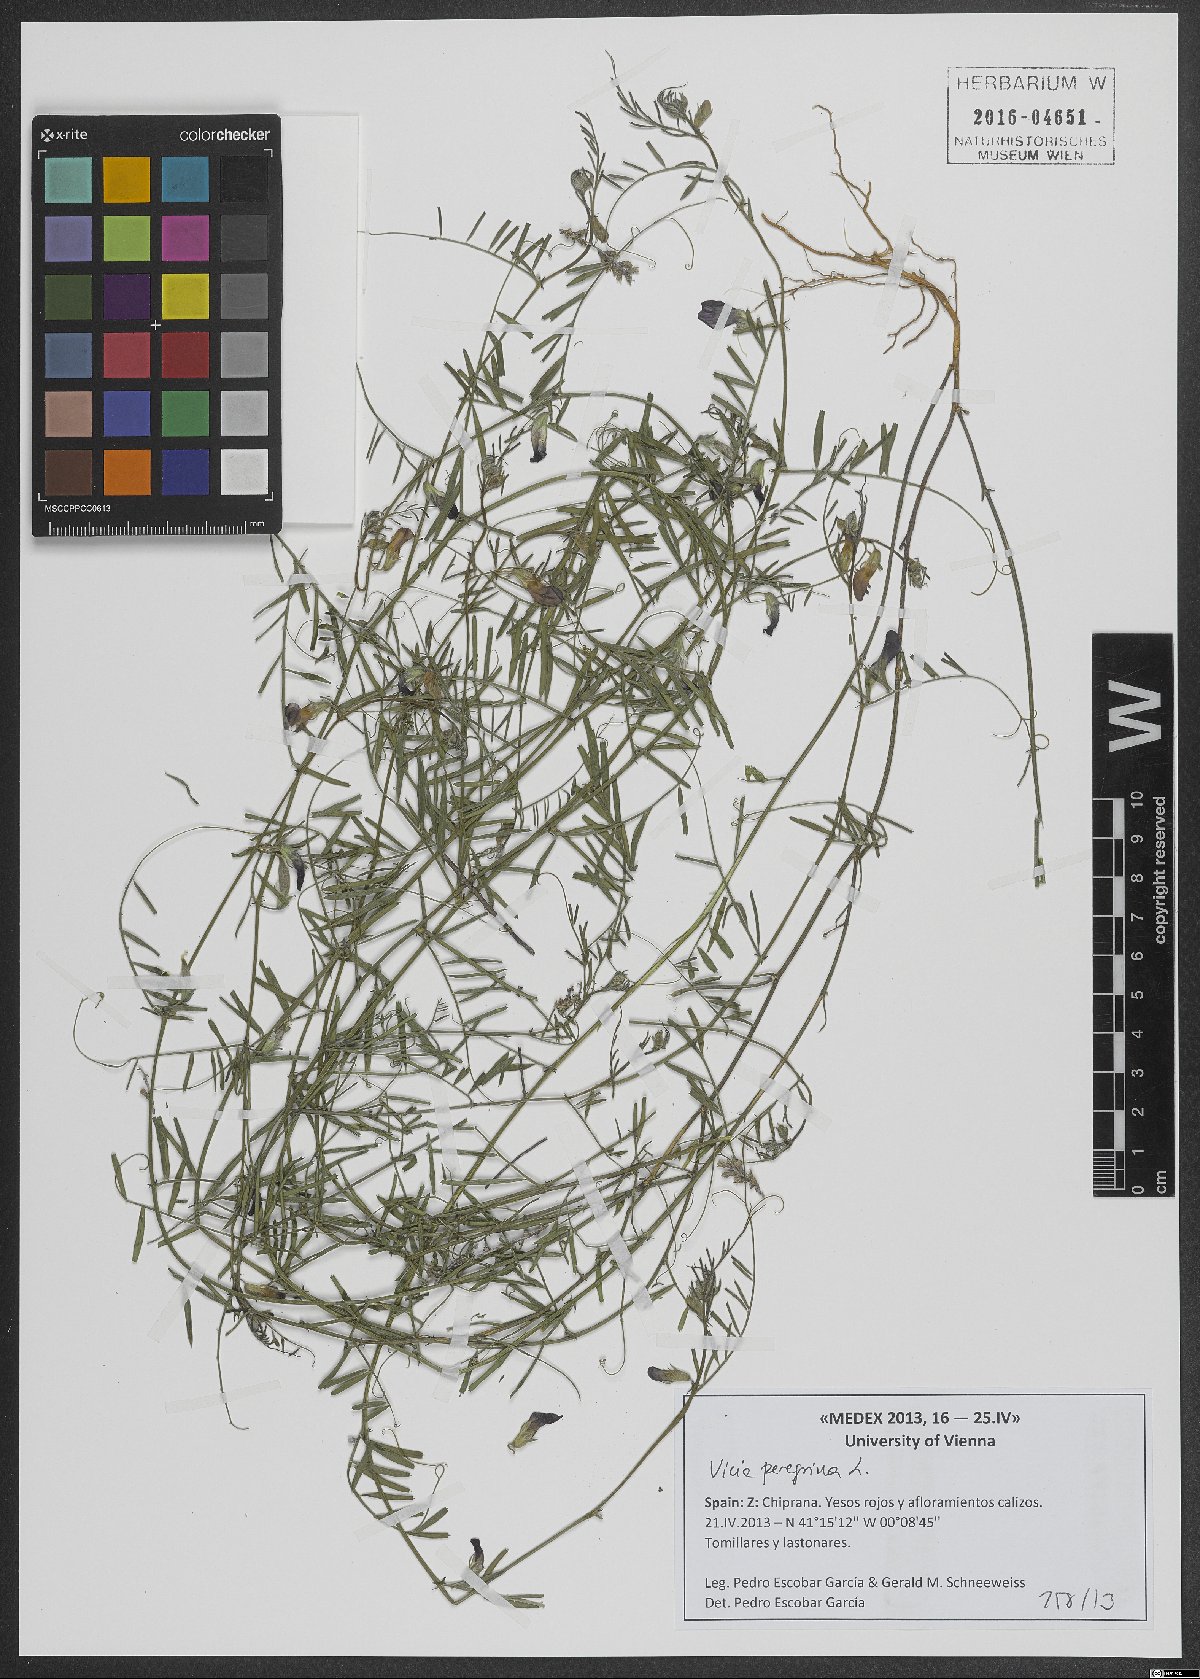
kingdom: Plantae
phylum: Tracheophyta
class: Magnoliopsida
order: Fabales
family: Fabaceae
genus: Vicia
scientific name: Vicia peregrina
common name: Broad-pod vetch
